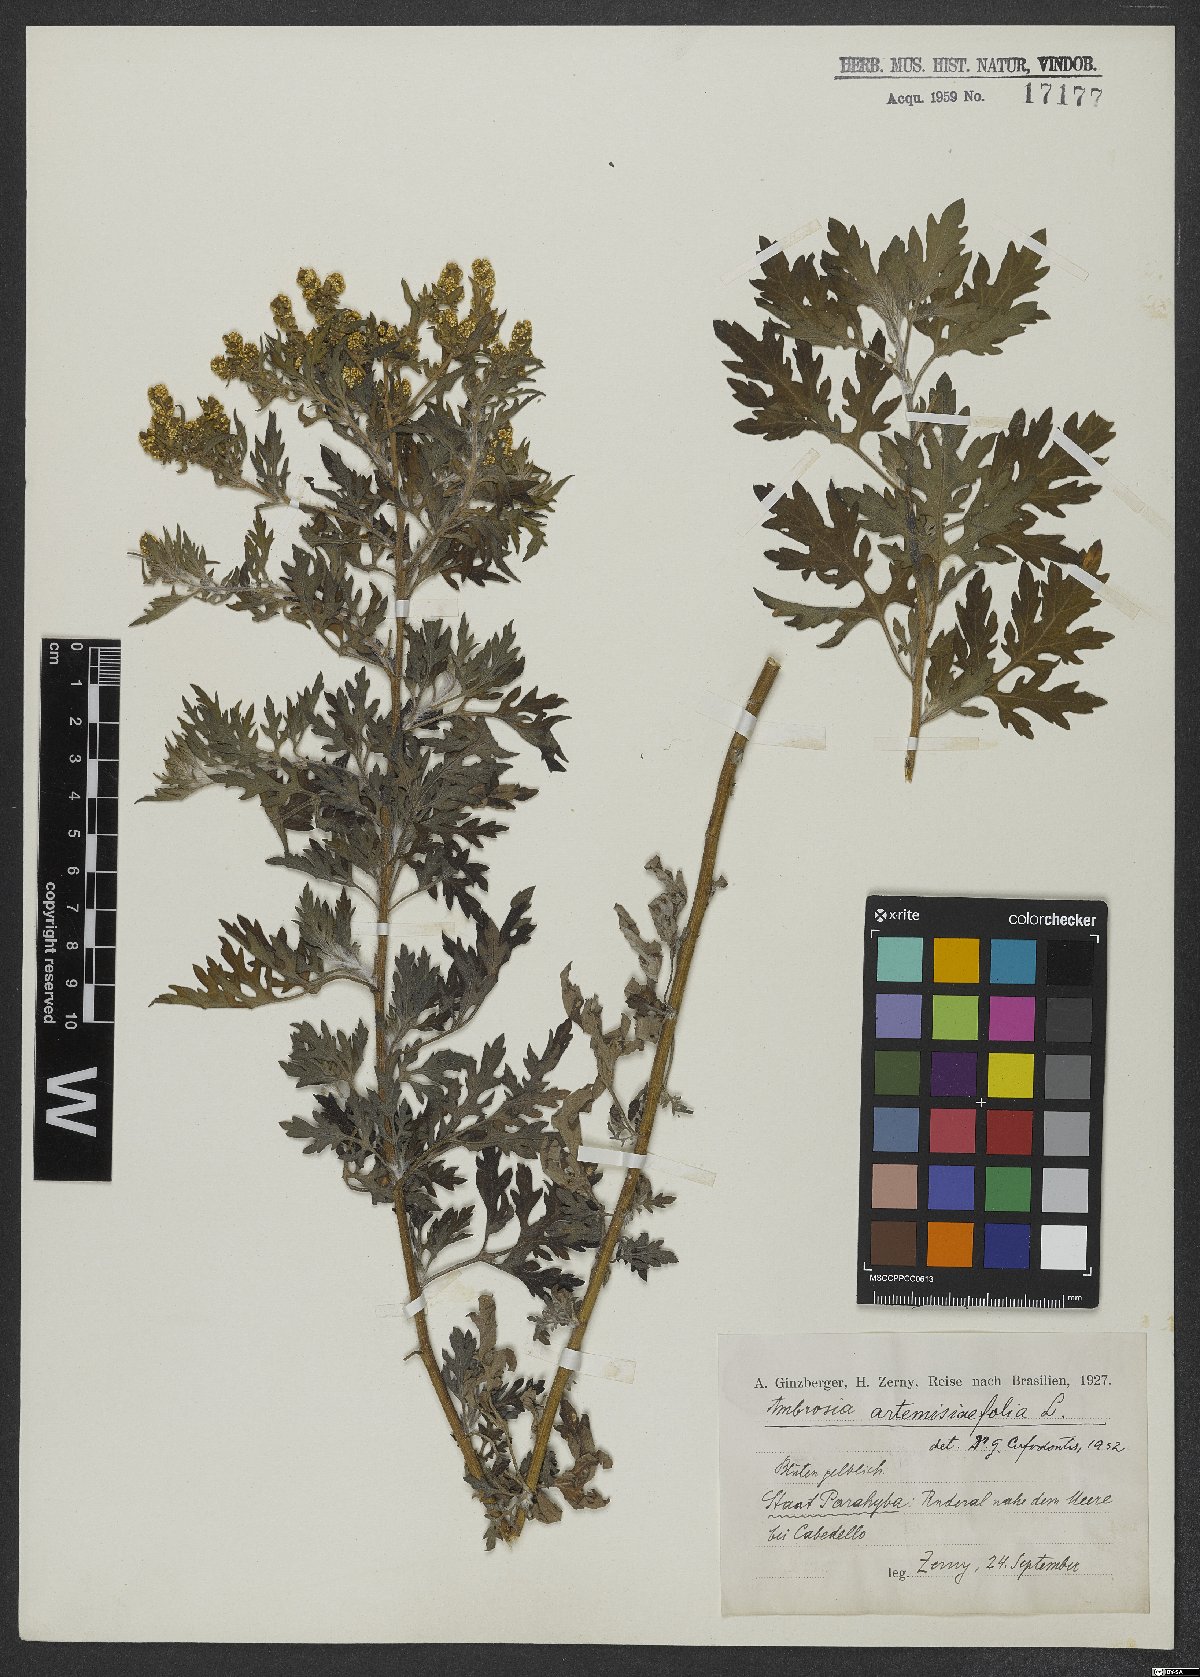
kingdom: Plantae
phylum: Tracheophyta
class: Magnoliopsida
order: Asterales
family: Asteraceae
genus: Ambrosia
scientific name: Ambrosia artemisiifolia
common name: Annual ragweed
